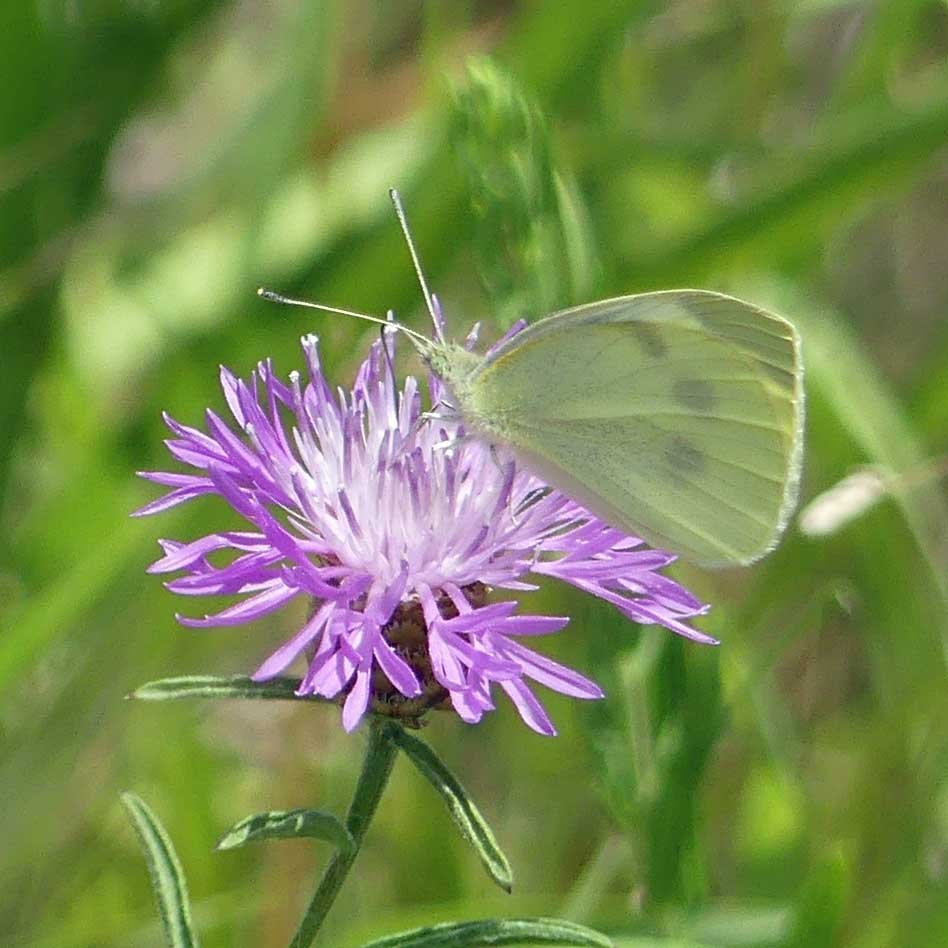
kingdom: Animalia
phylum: Arthropoda
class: Insecta
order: Lepidoptera
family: Pieridae
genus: Pieris
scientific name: Pieris rapae
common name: Cabbage White
